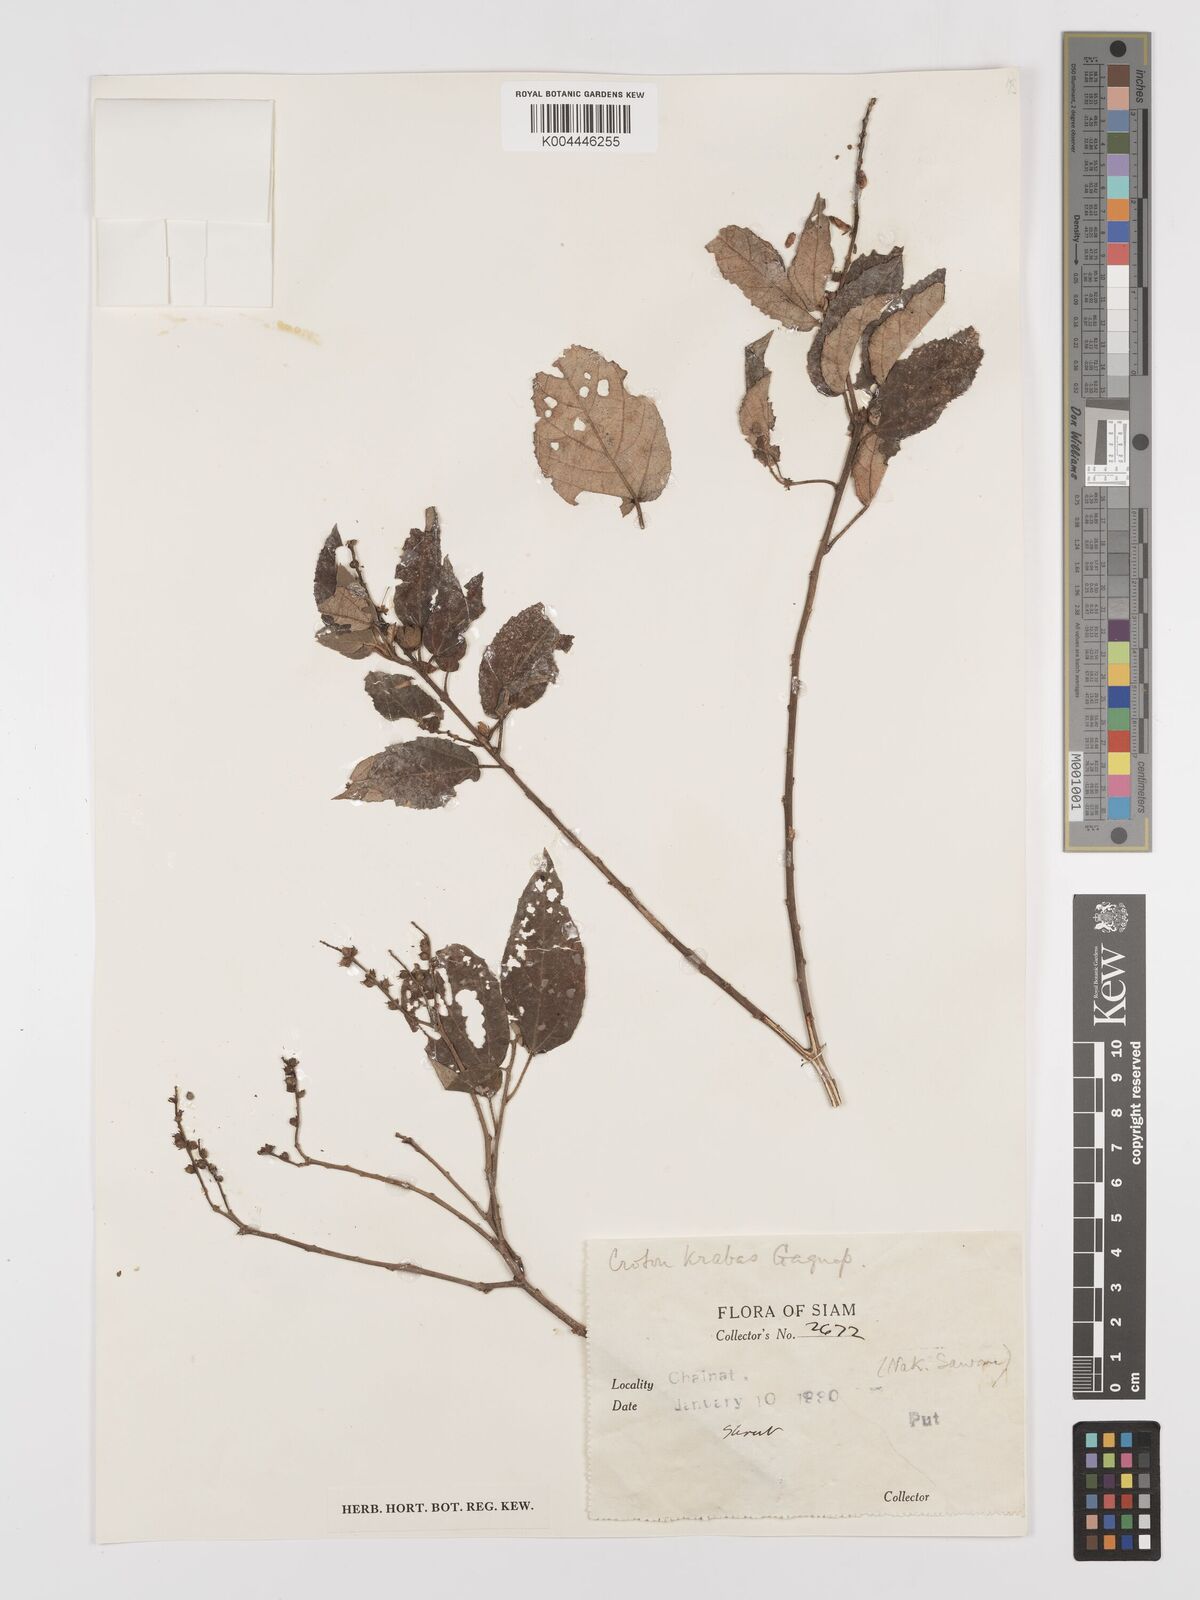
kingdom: Plantae
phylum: Tracheophyta
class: Magnoliopsida
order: Malpighiales
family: Euphorbiaceae
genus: Croton
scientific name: Croton krabas
